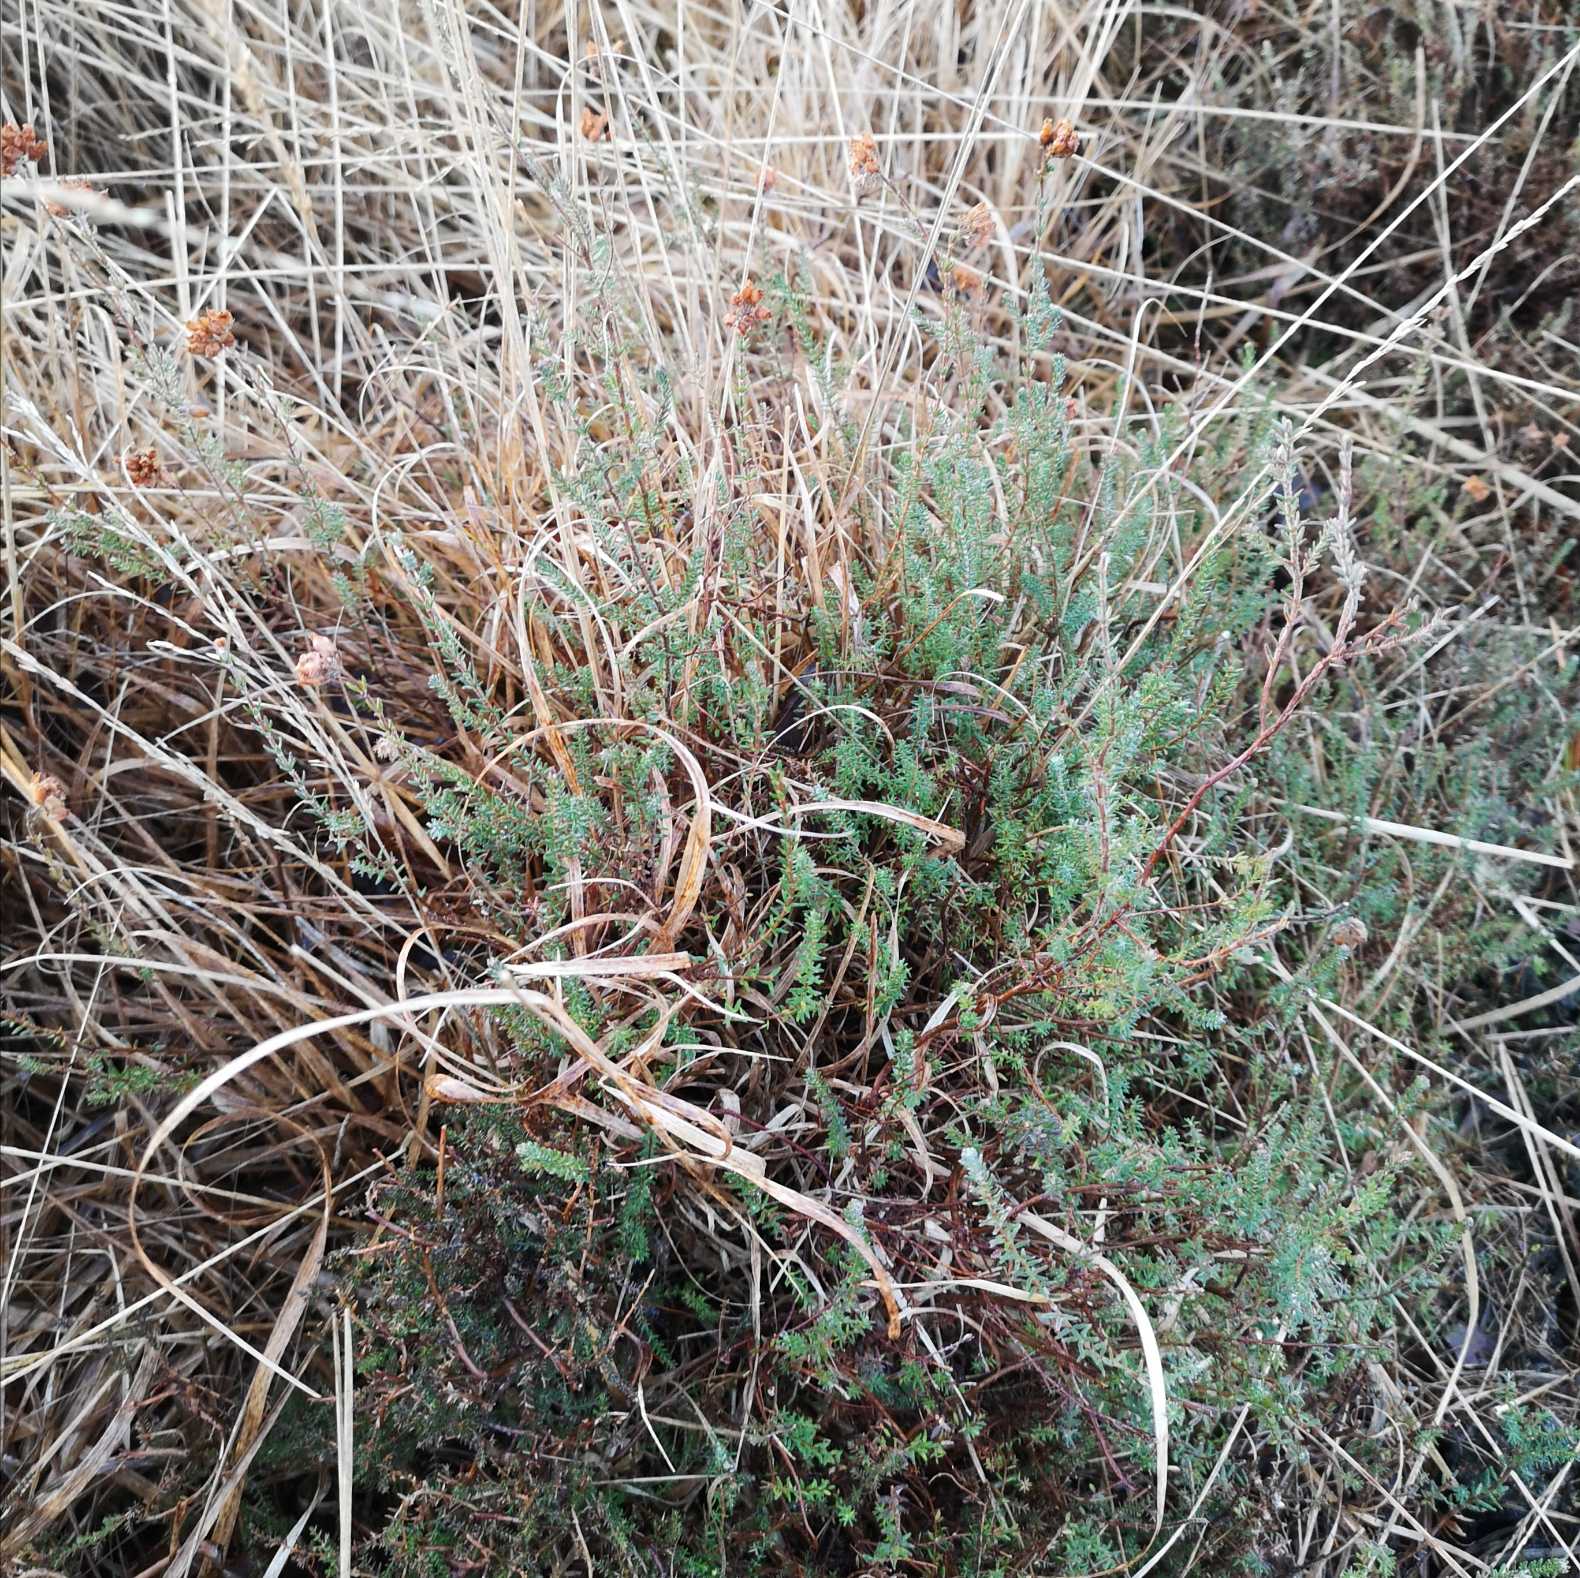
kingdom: Plantae
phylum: Tracheophyta
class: Magnoliopsida
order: Ericales
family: Ericaceae
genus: Erica
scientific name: Erica tetralix
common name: Klokkelyng
